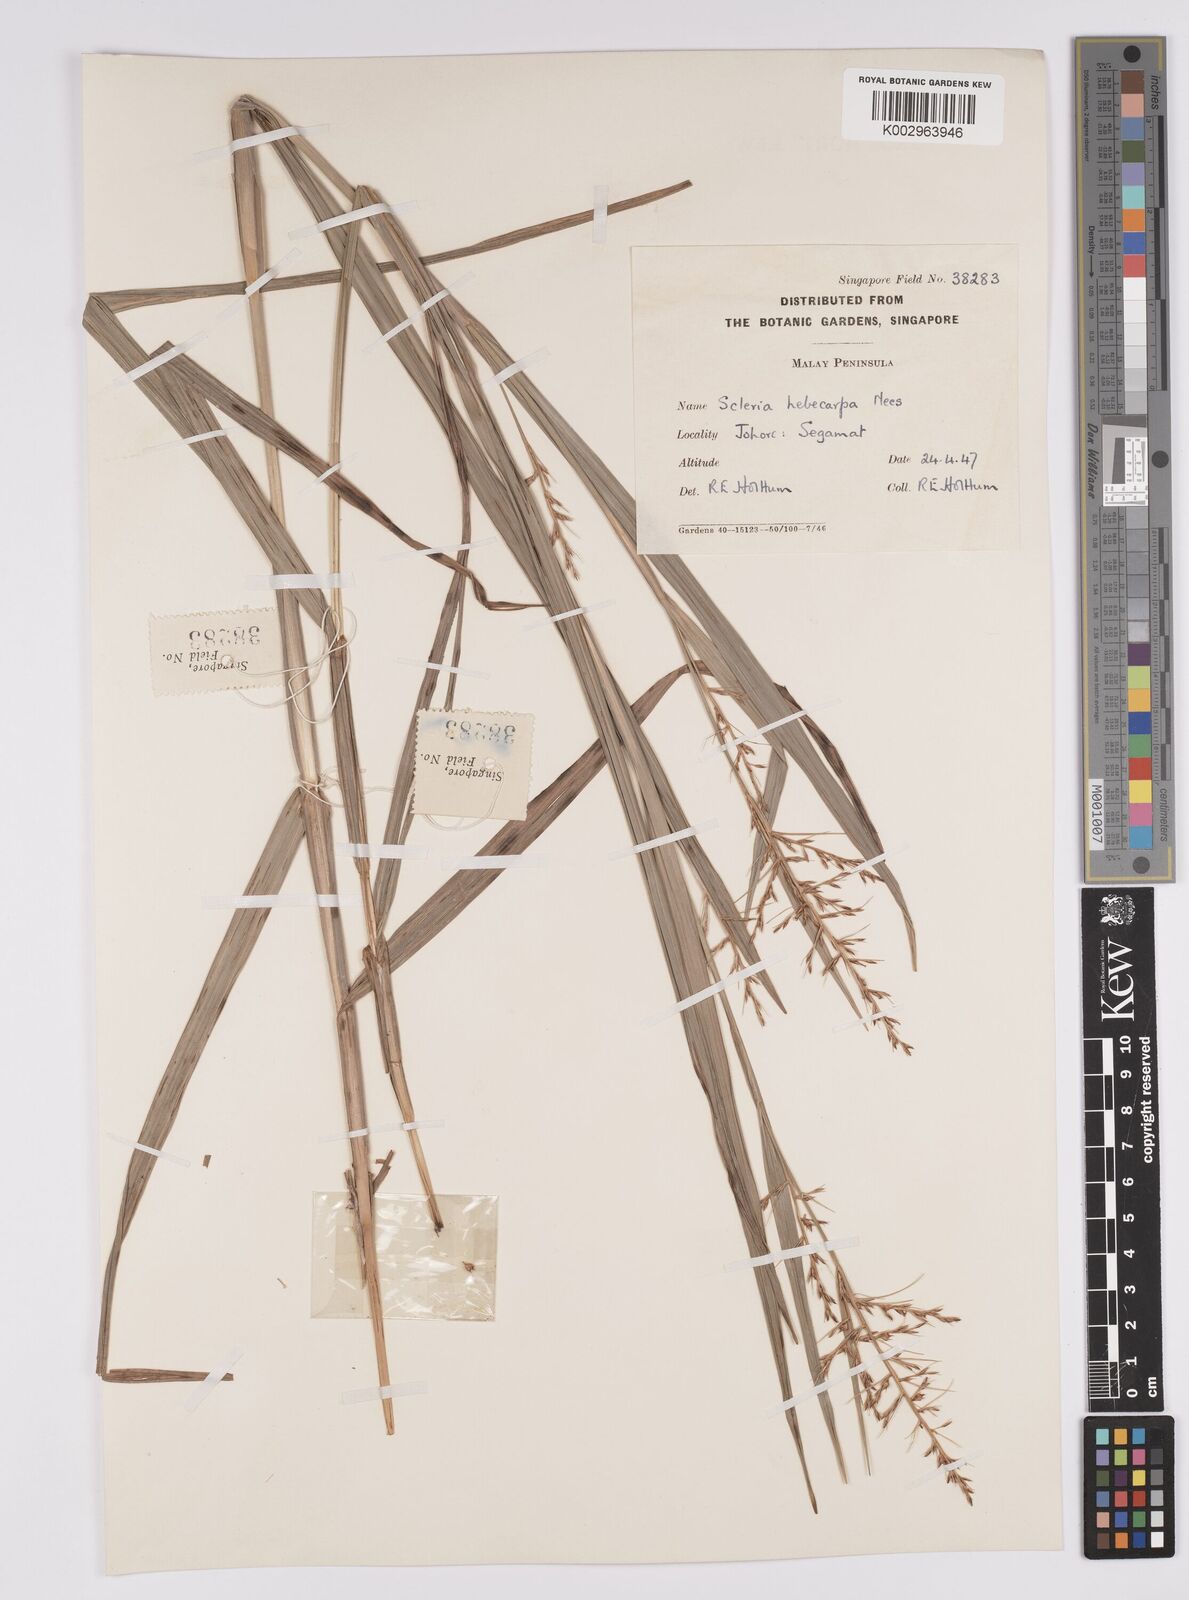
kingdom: Plantae
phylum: Tracheophyta
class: Liliopsida
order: Poales
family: Cyperaceae
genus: Scleria
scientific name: Scleria levis
